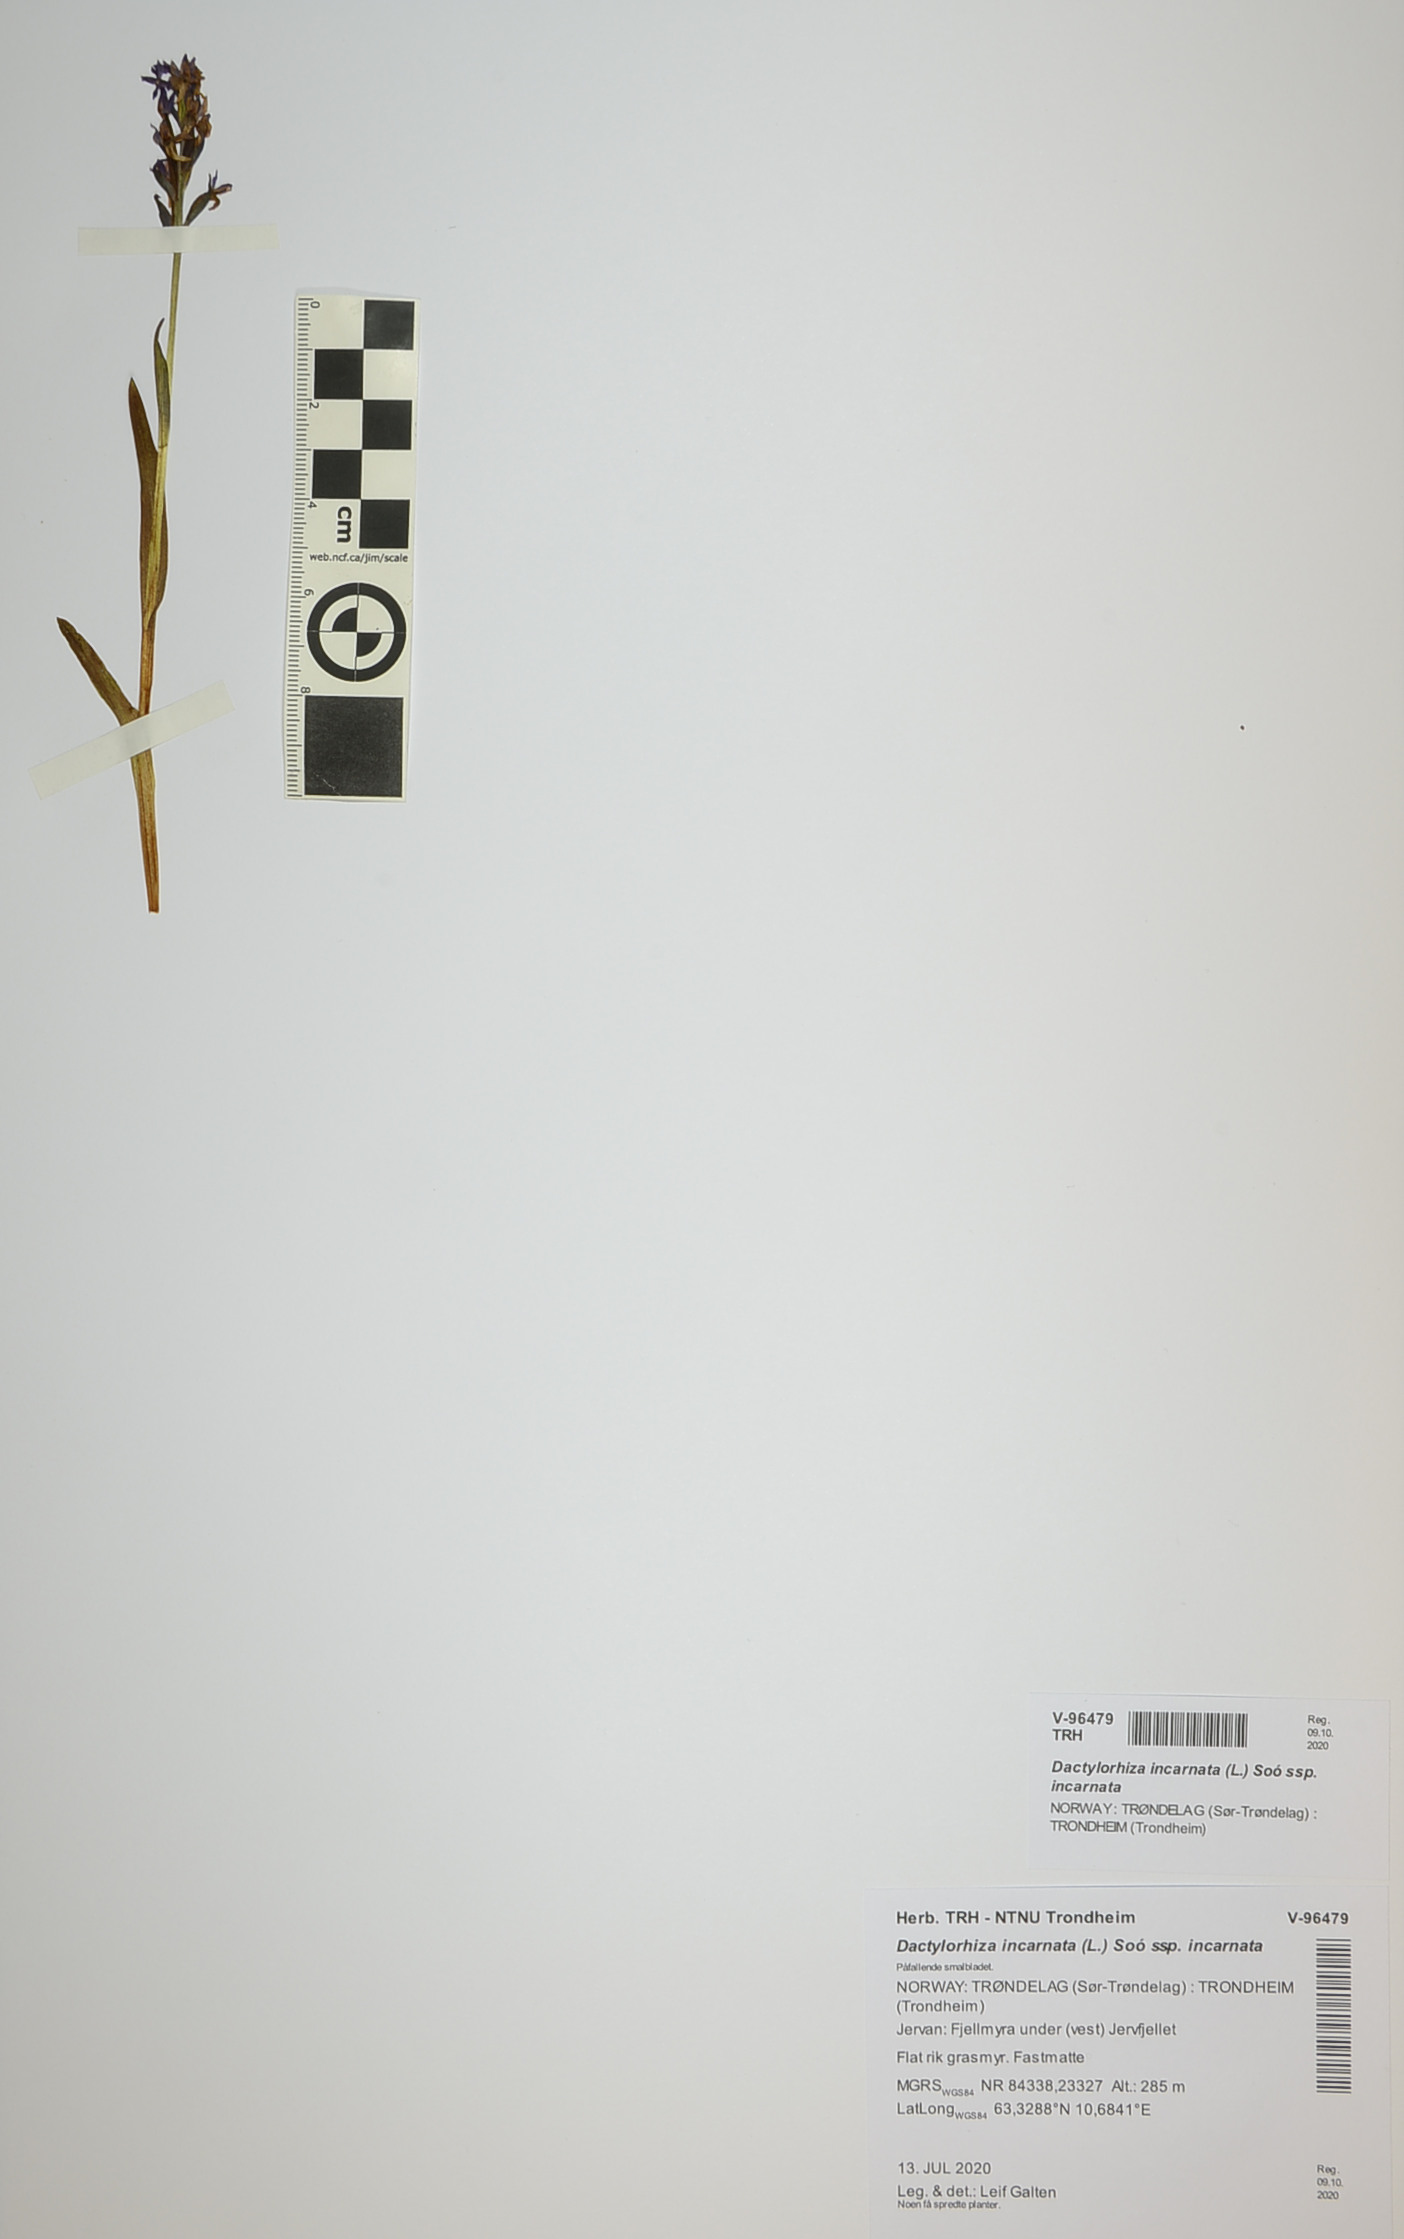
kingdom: Plantae
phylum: Tracheophyta
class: Liliopsida
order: Asparagales
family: Orchidaceae
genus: Dactylorhiza
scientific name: Dactylorhiza incarnata
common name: Early marsh-orchid
